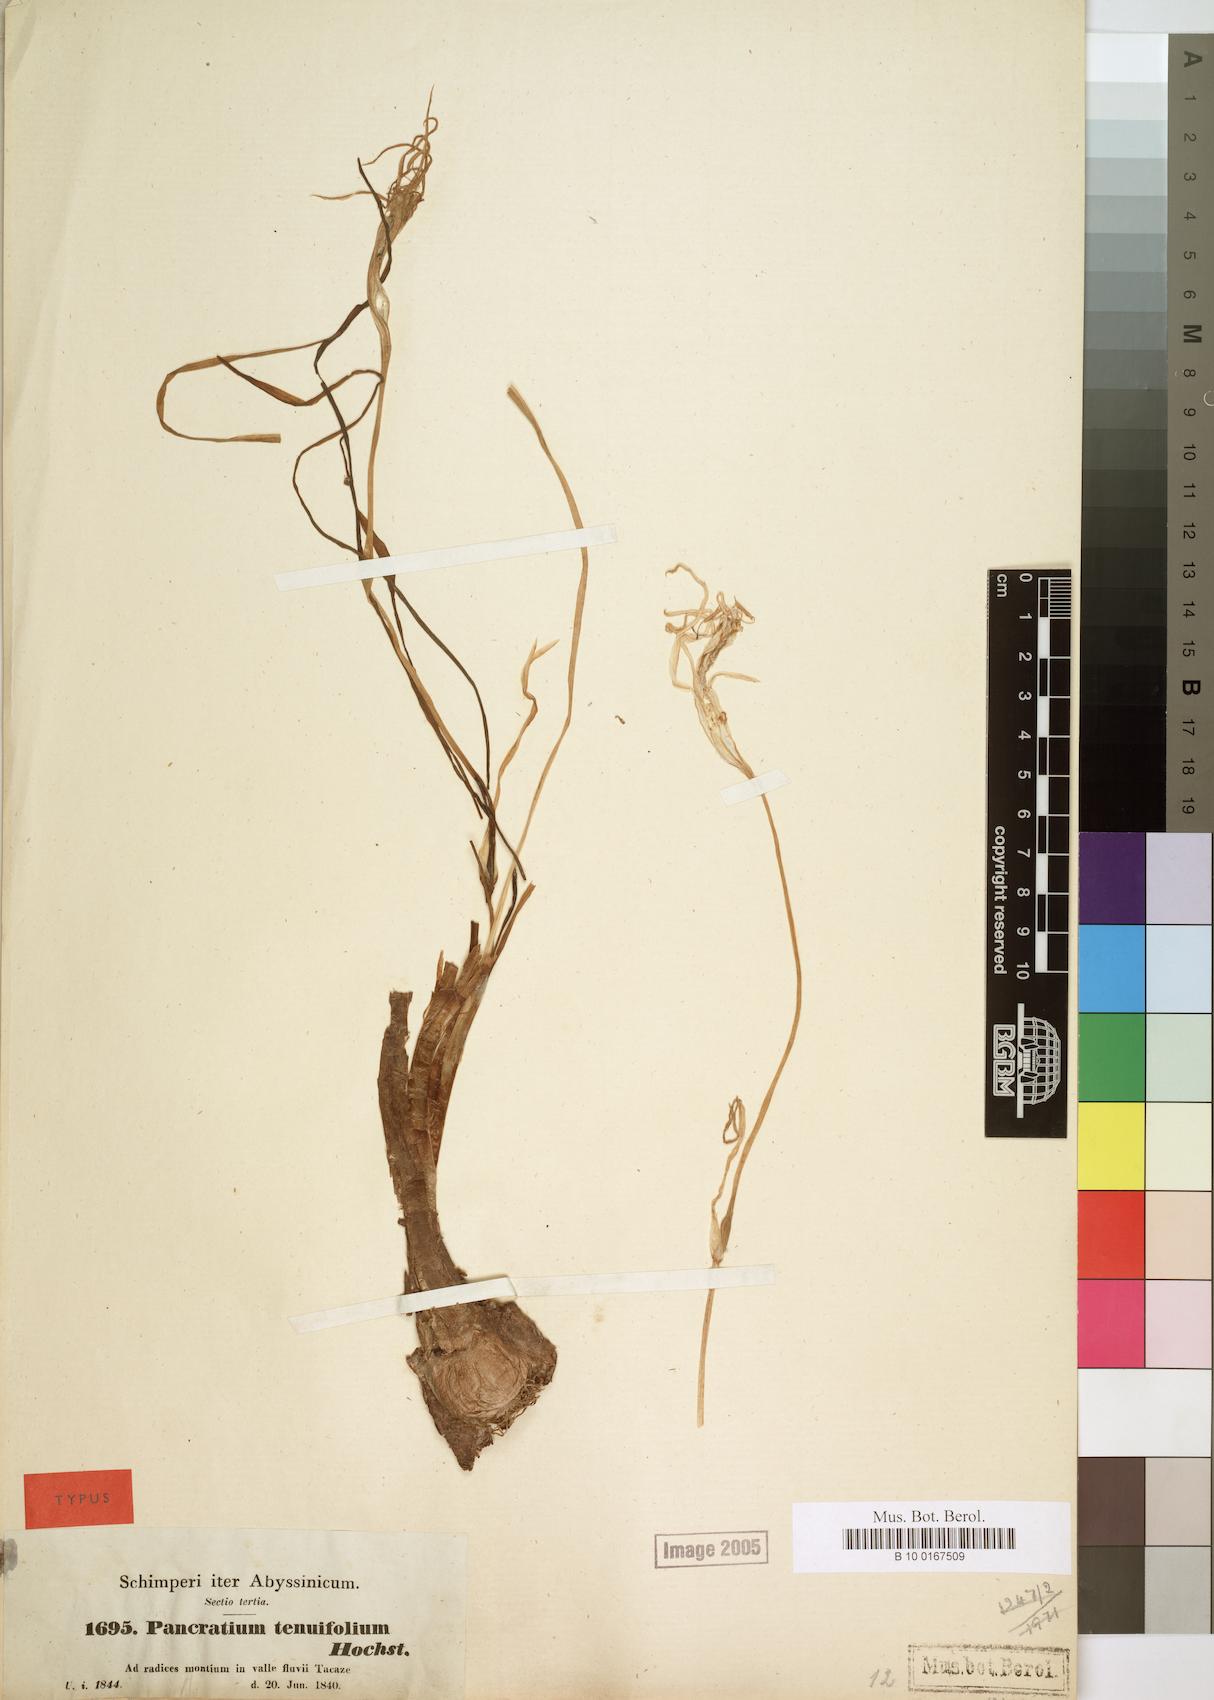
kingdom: Plantae
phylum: Tracheophyta
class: Liliopsida
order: Asparagales
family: Amaryllidaceae
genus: Pancratium
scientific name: Pancratium tenuifolium
